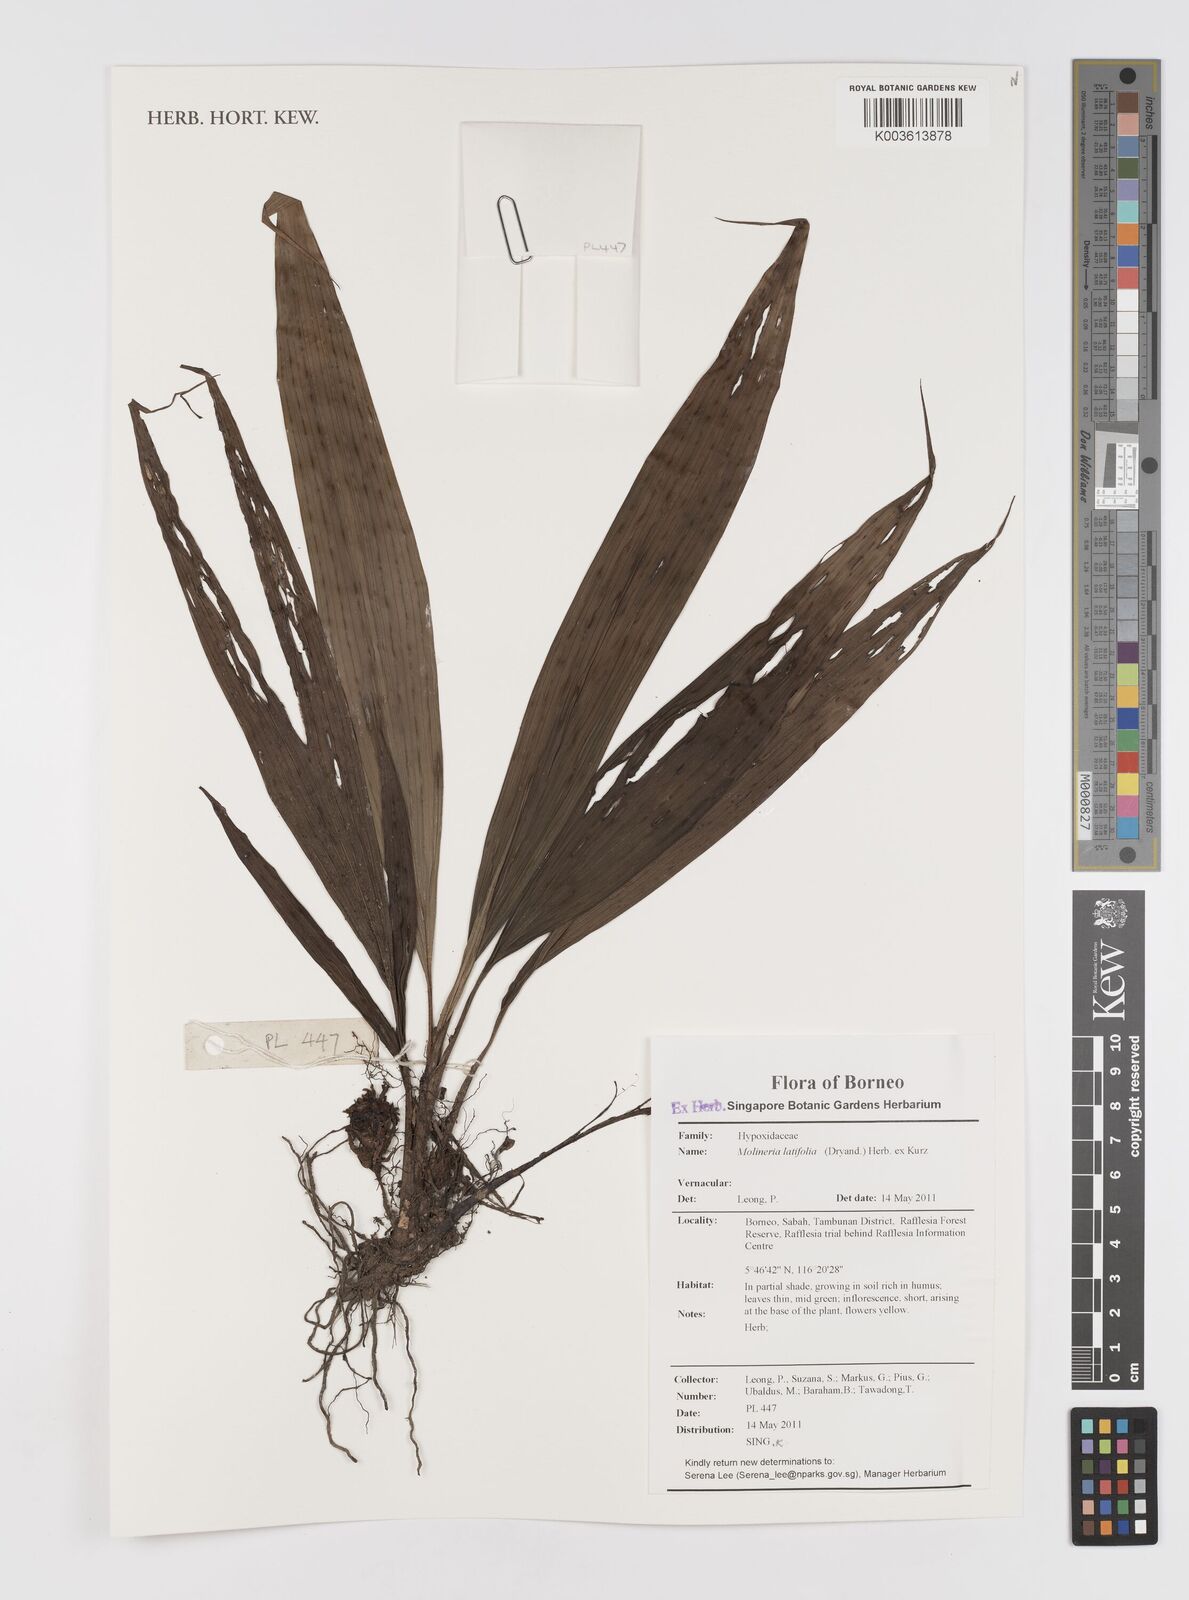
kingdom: Plantae
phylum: Tracheophyta
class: Liliopsida
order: Asparagales
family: Hypoxidaceae
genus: Curculigo
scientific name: Curculigo latifolia
